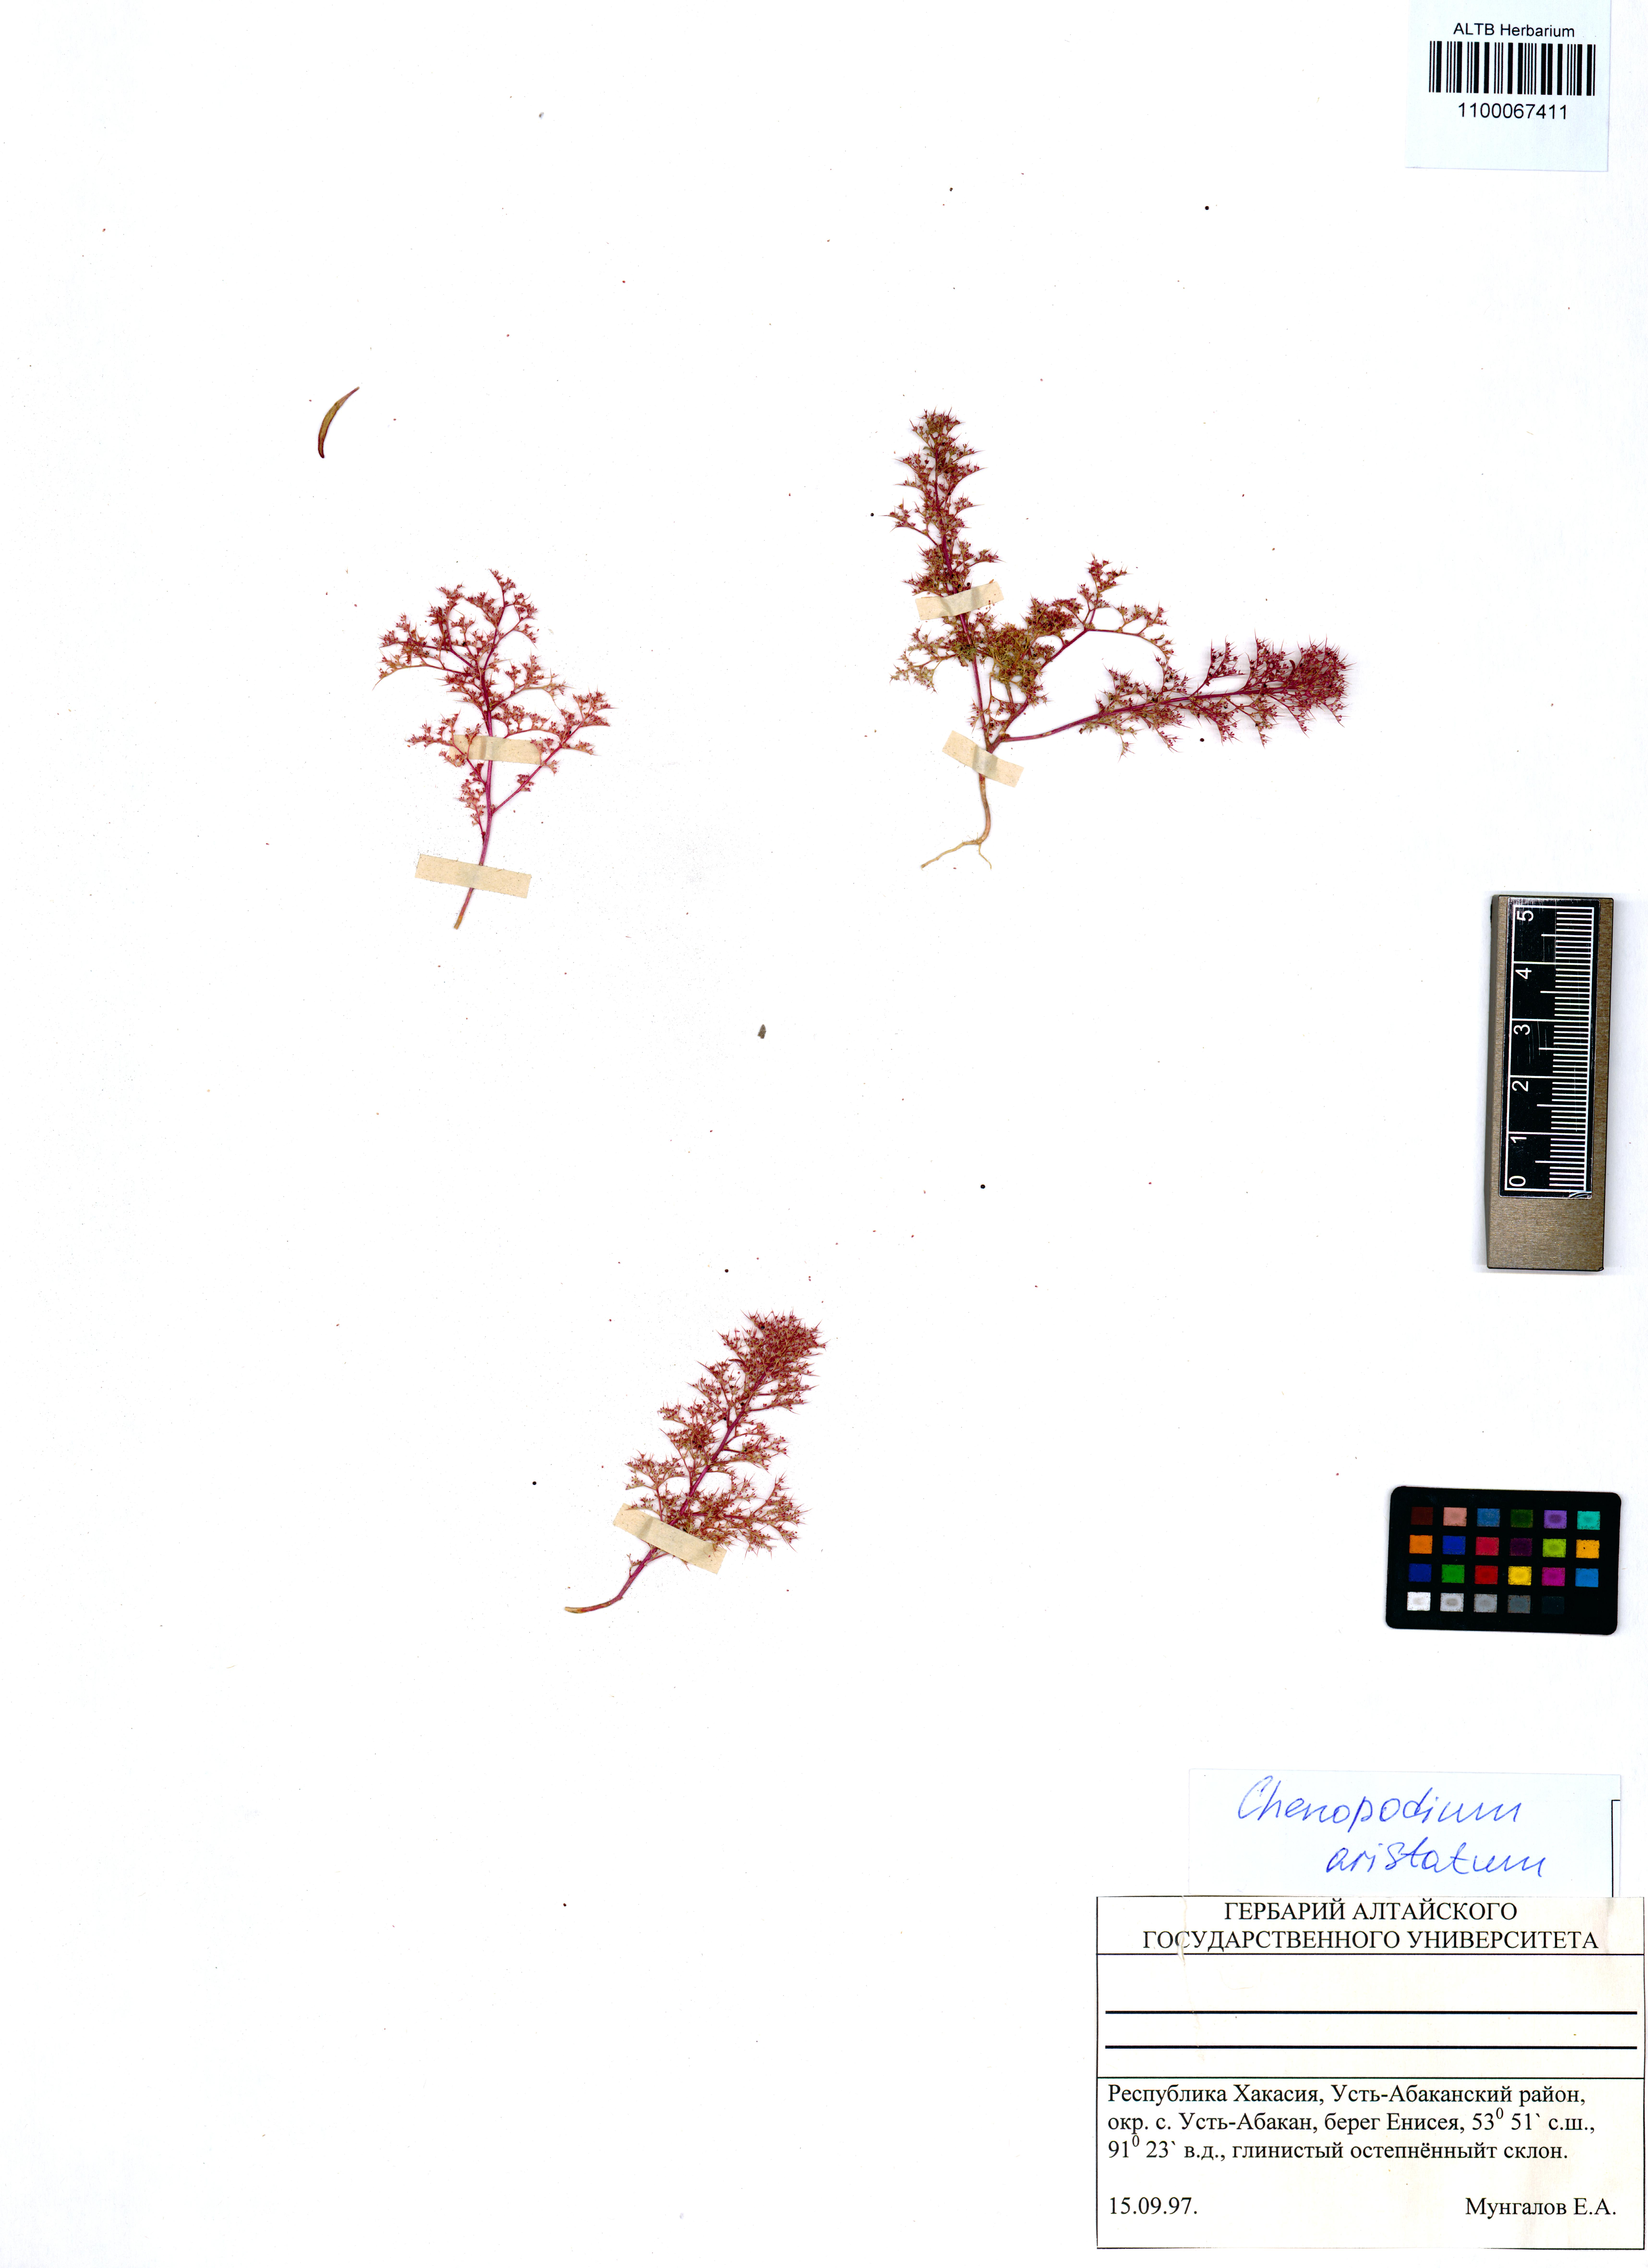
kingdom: Plantae
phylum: Tracheophyta
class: Magnoliopsida
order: Caryophyllales
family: Amaranthaceae
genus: Teloxys
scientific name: Teloxys aristata
